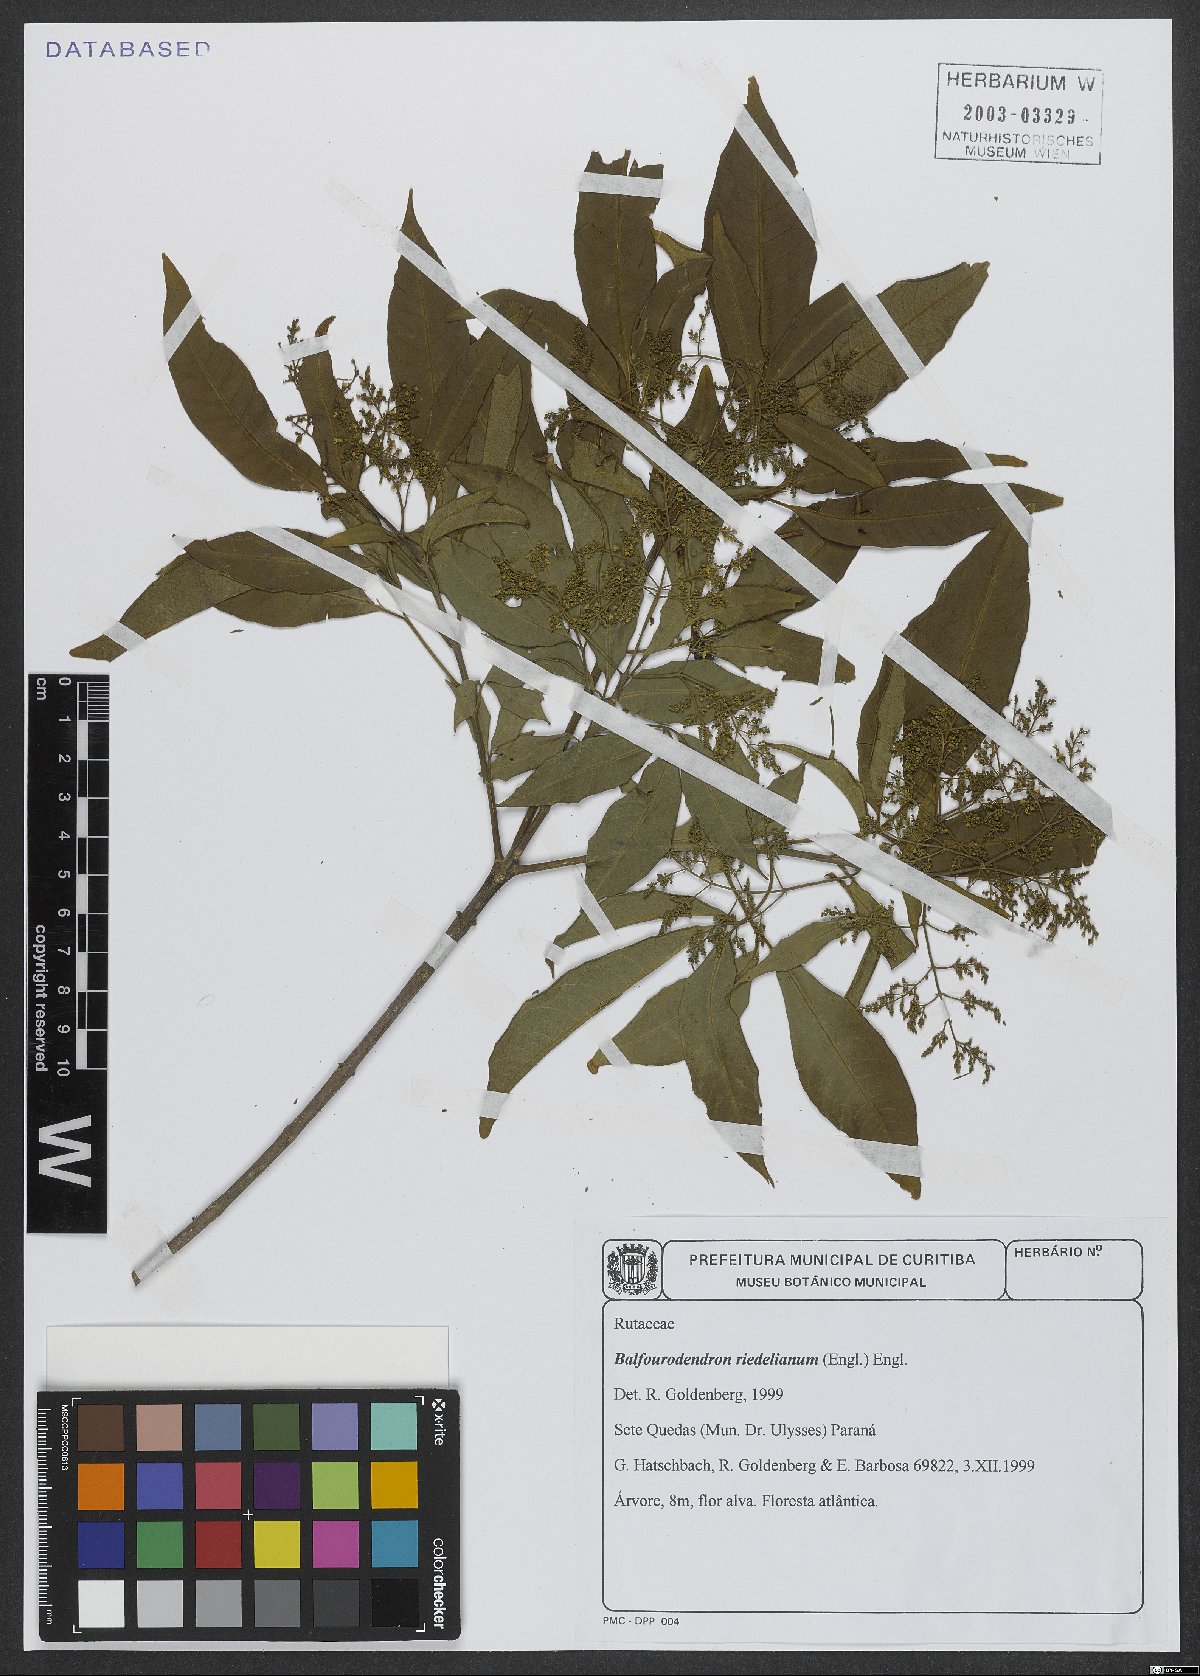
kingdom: Plantae
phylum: Tracheophyta
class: Magnoliopsida
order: Sapindales
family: Rutaceae
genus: Balfourodendron
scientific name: Balfourodendron riedelianum
